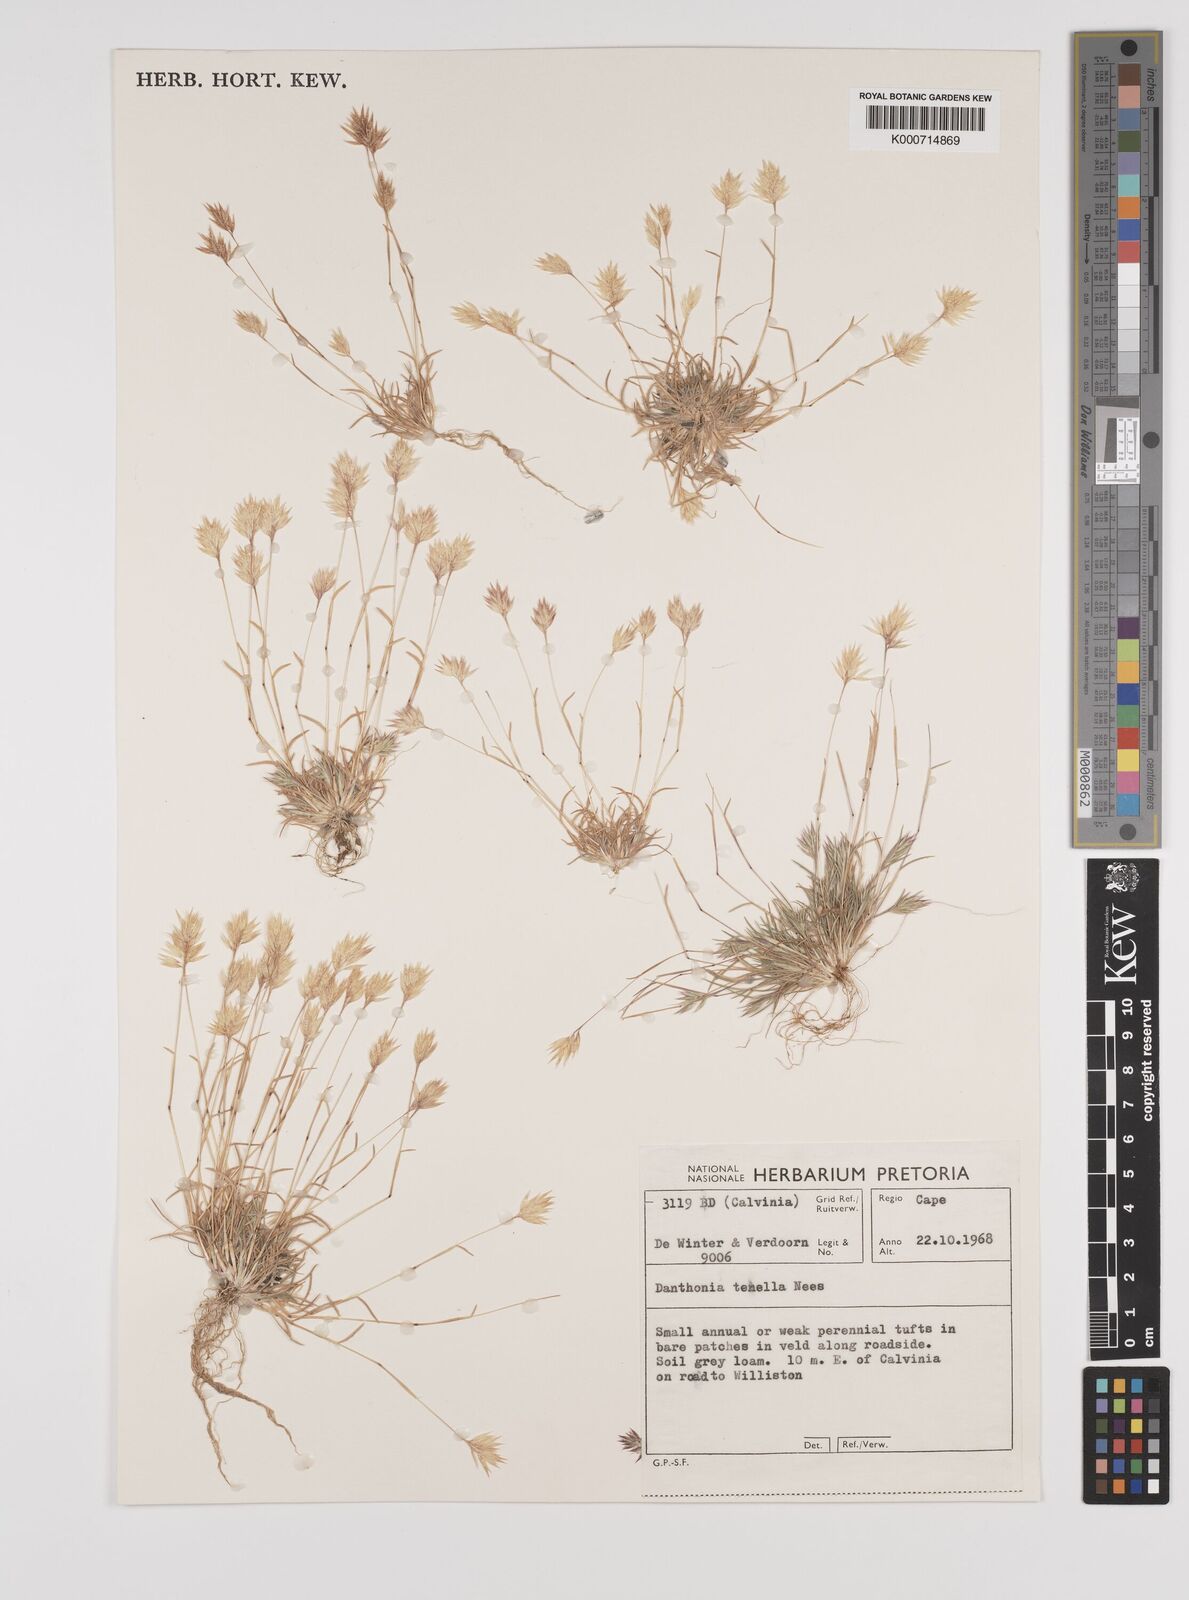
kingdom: Plantae
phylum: Tracheophyta
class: Liliopsida
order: Poales
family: Poaceae
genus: Rytidosperma
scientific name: Rytidosperma
